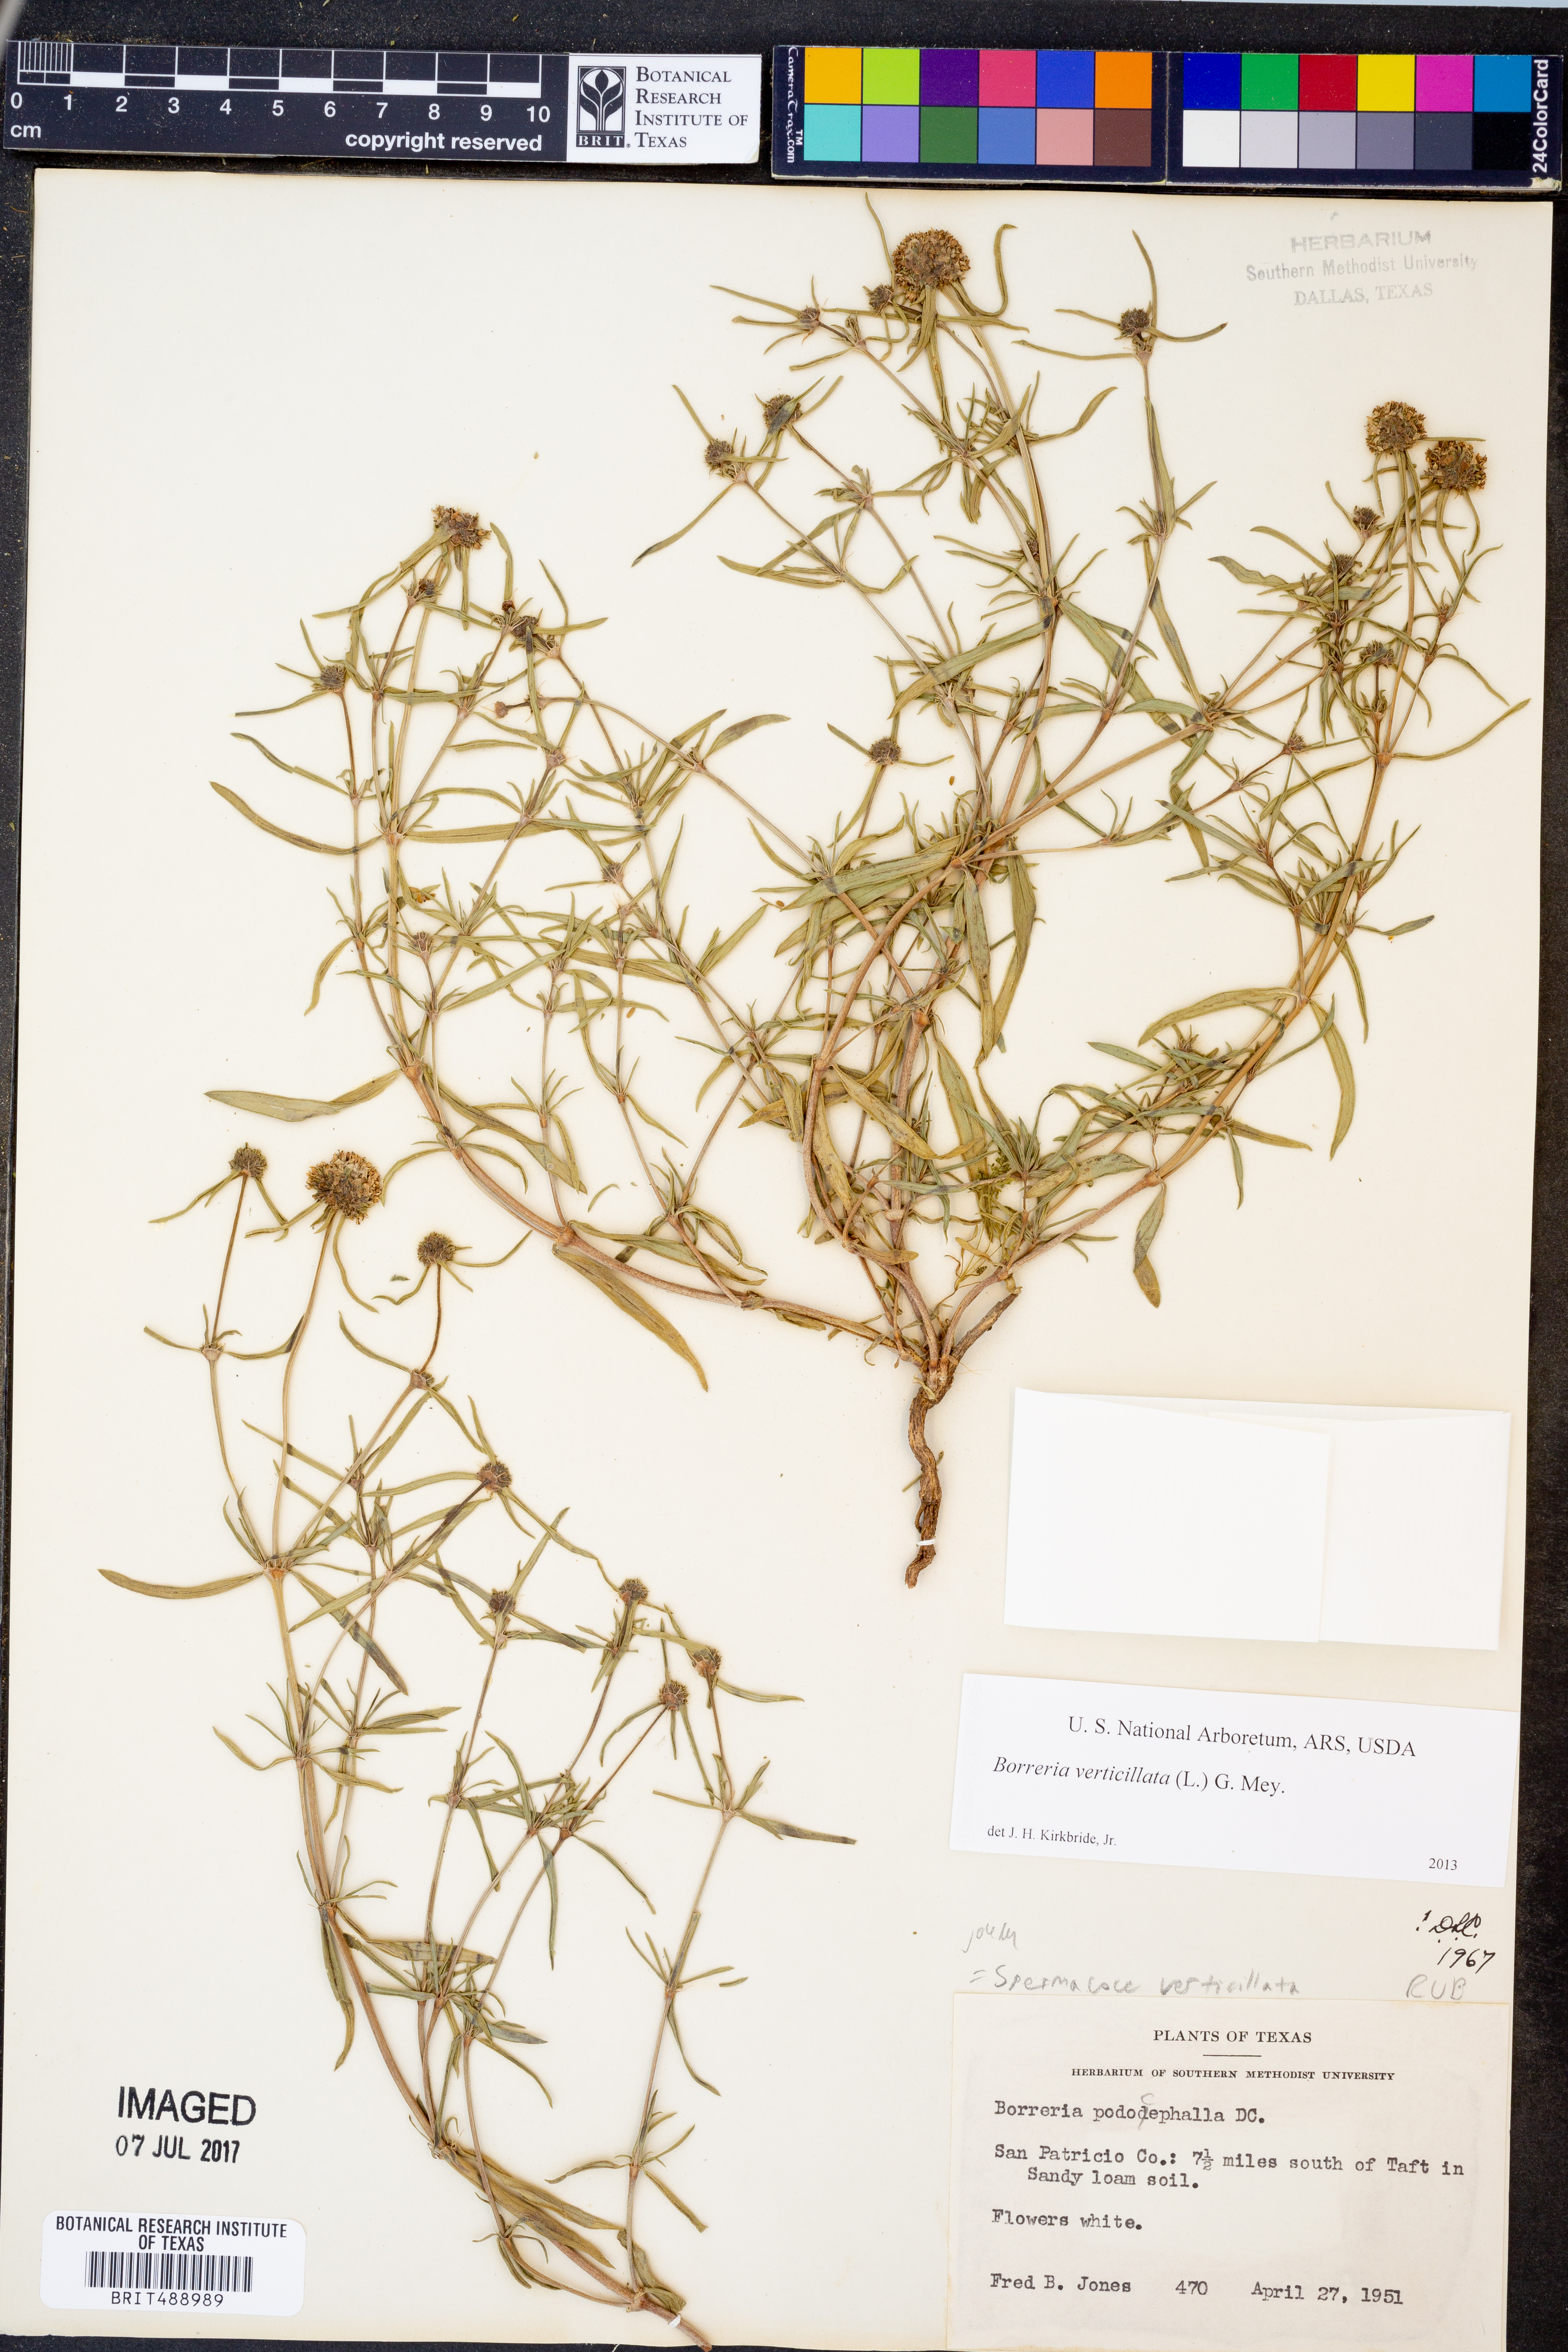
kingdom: Plantae
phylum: Tracheophyta
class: Magnoliopsida
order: Gentianales
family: Rubiaceae
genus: Spermacoce
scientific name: Spermacoce verticillata
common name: Shrubby false buttonweed
